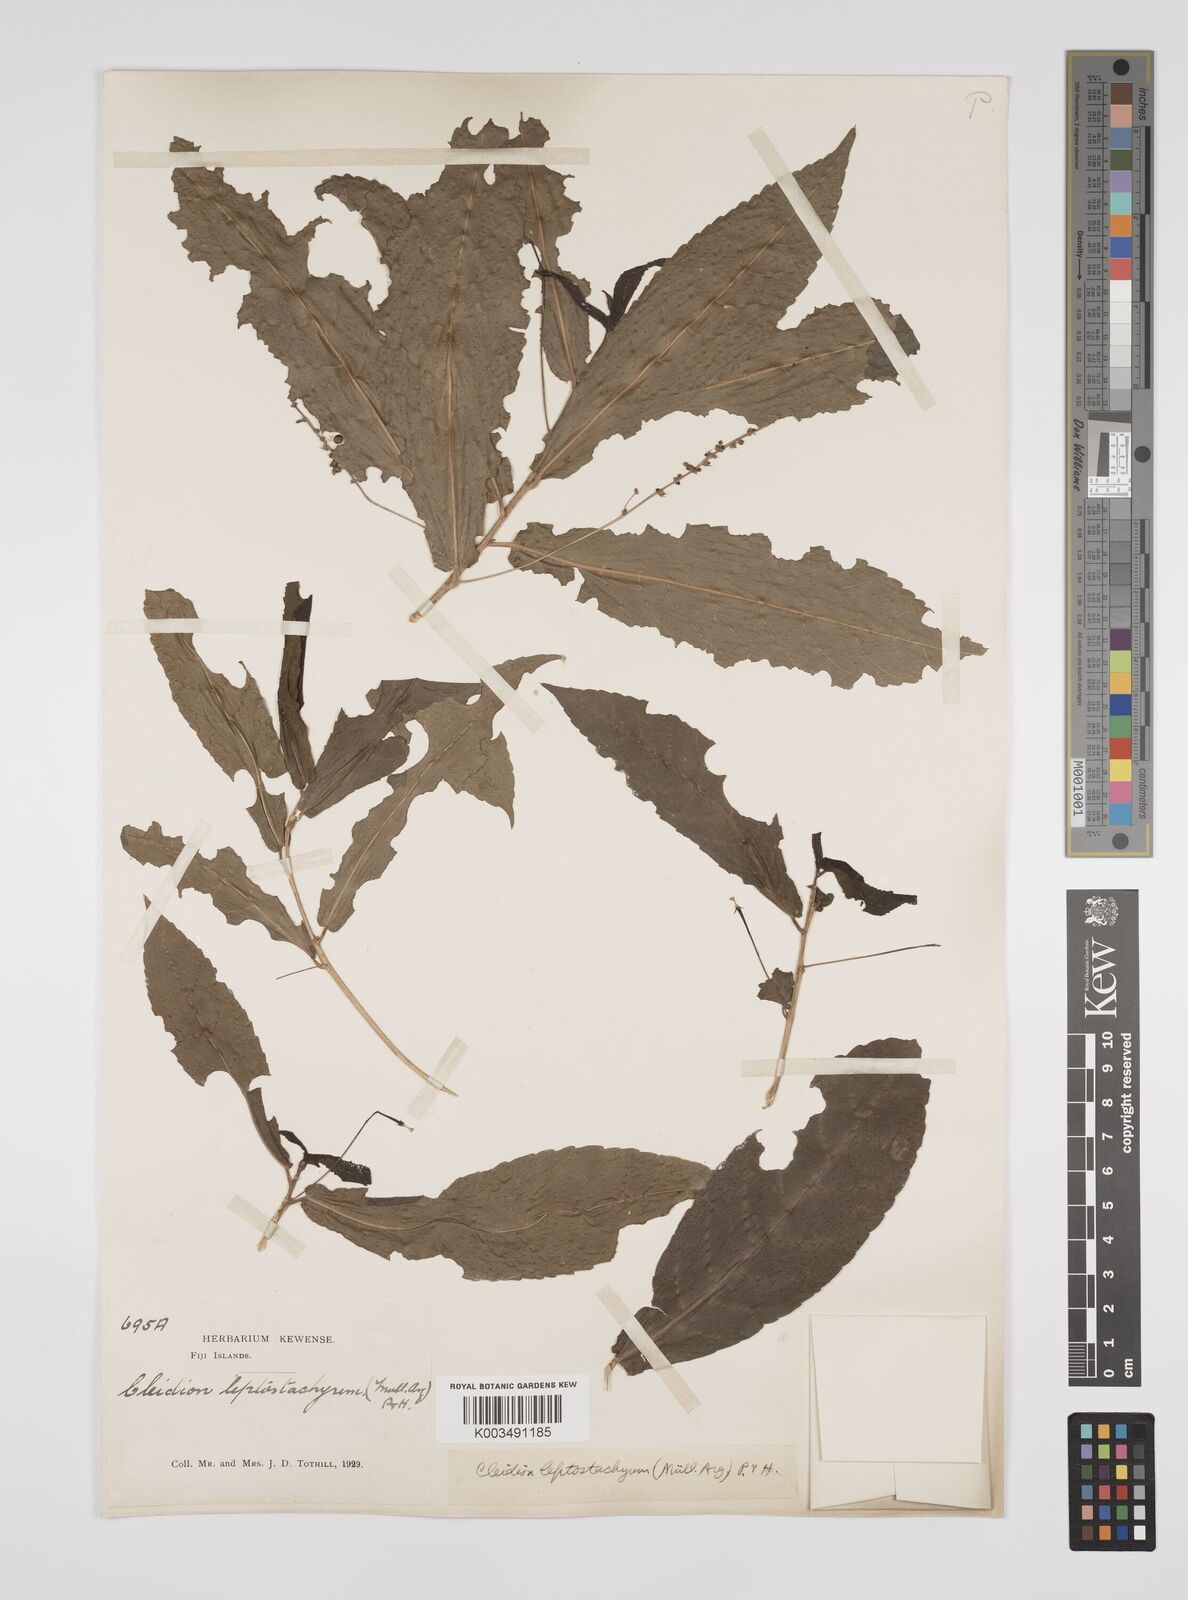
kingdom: Plantae
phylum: Tracheophyta
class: Magnoliopsida
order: Malpighiales
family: Euphorbiaceae
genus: Cleidion
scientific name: Cleidion leptostachyum
